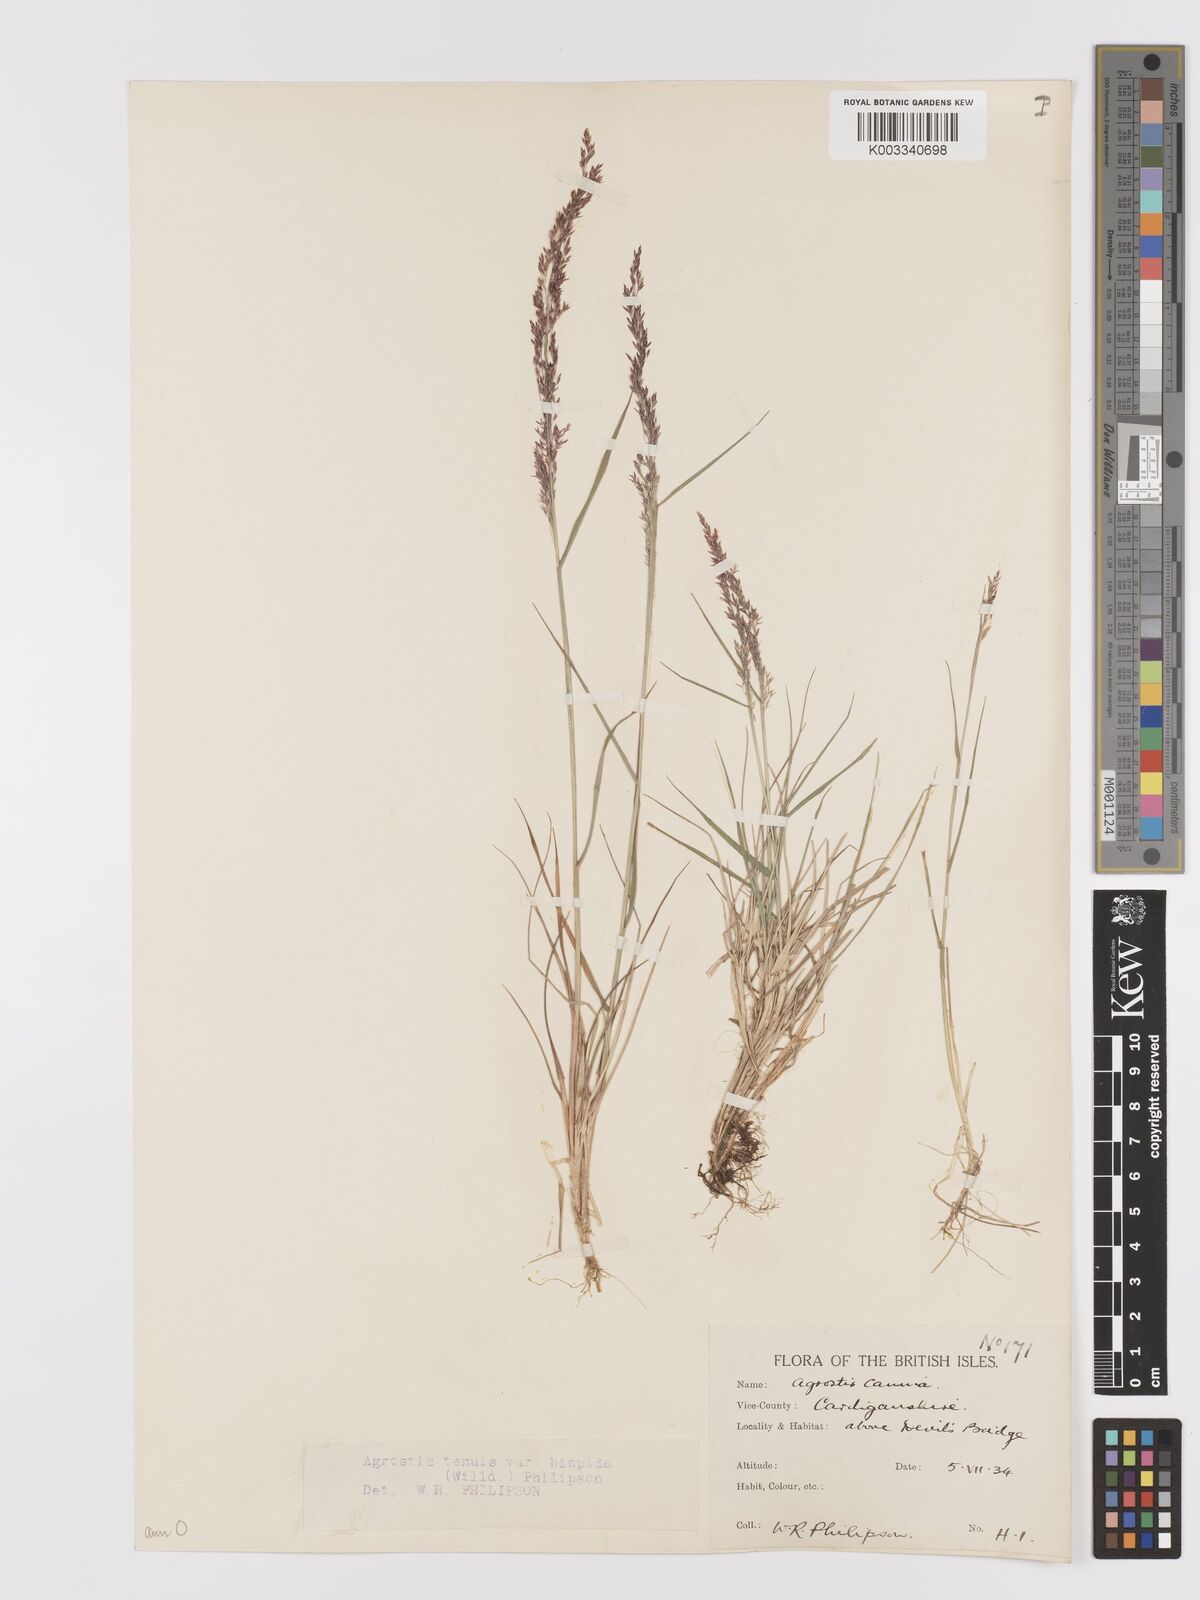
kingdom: Plantae
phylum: Tracheophyta
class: Liliopsida
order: Poales
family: Poaceae
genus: Agrostis
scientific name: Agrostis capillaris
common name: Colonial bentgrass
